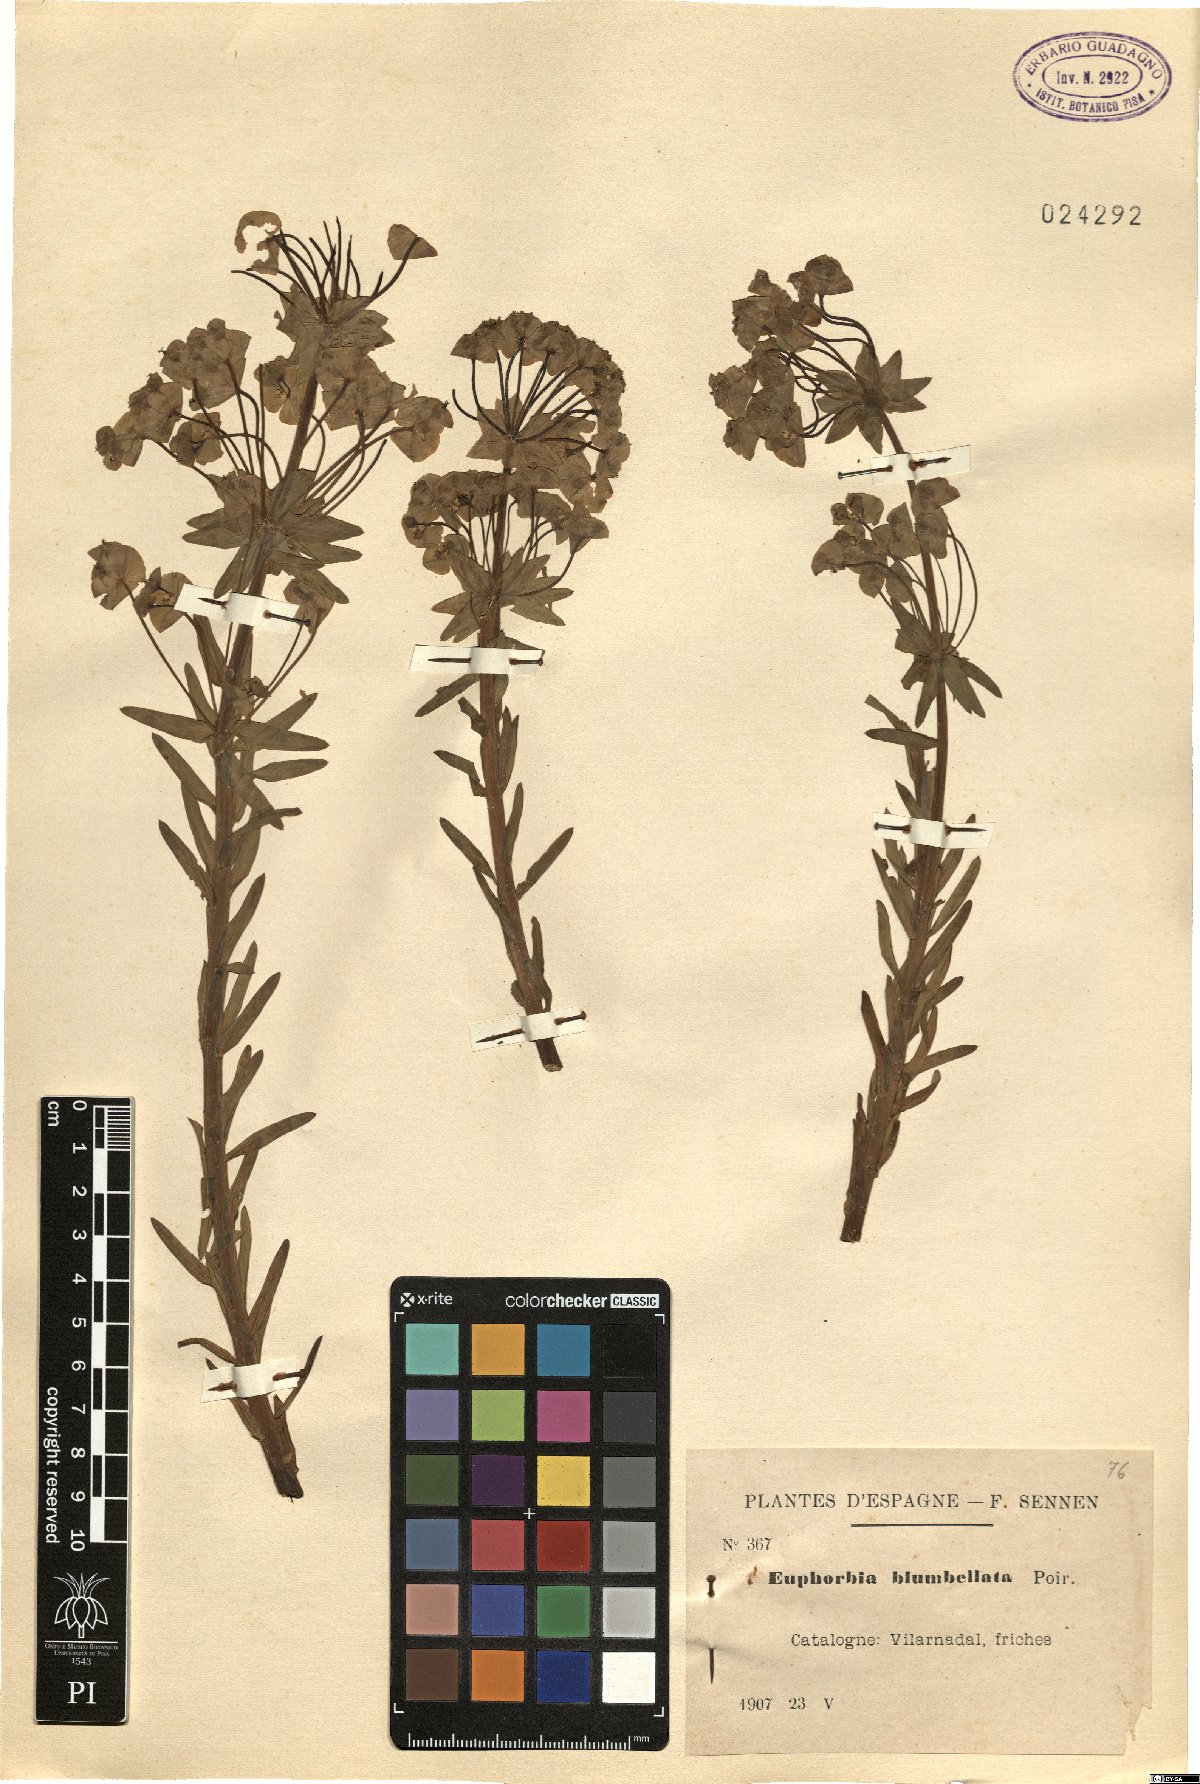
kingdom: Plantae
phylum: Tracheophyta
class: Magnoliopsida
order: Malpighiales
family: Euphorbiaceae
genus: Euphorbia
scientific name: Euphorbia biumbellata
